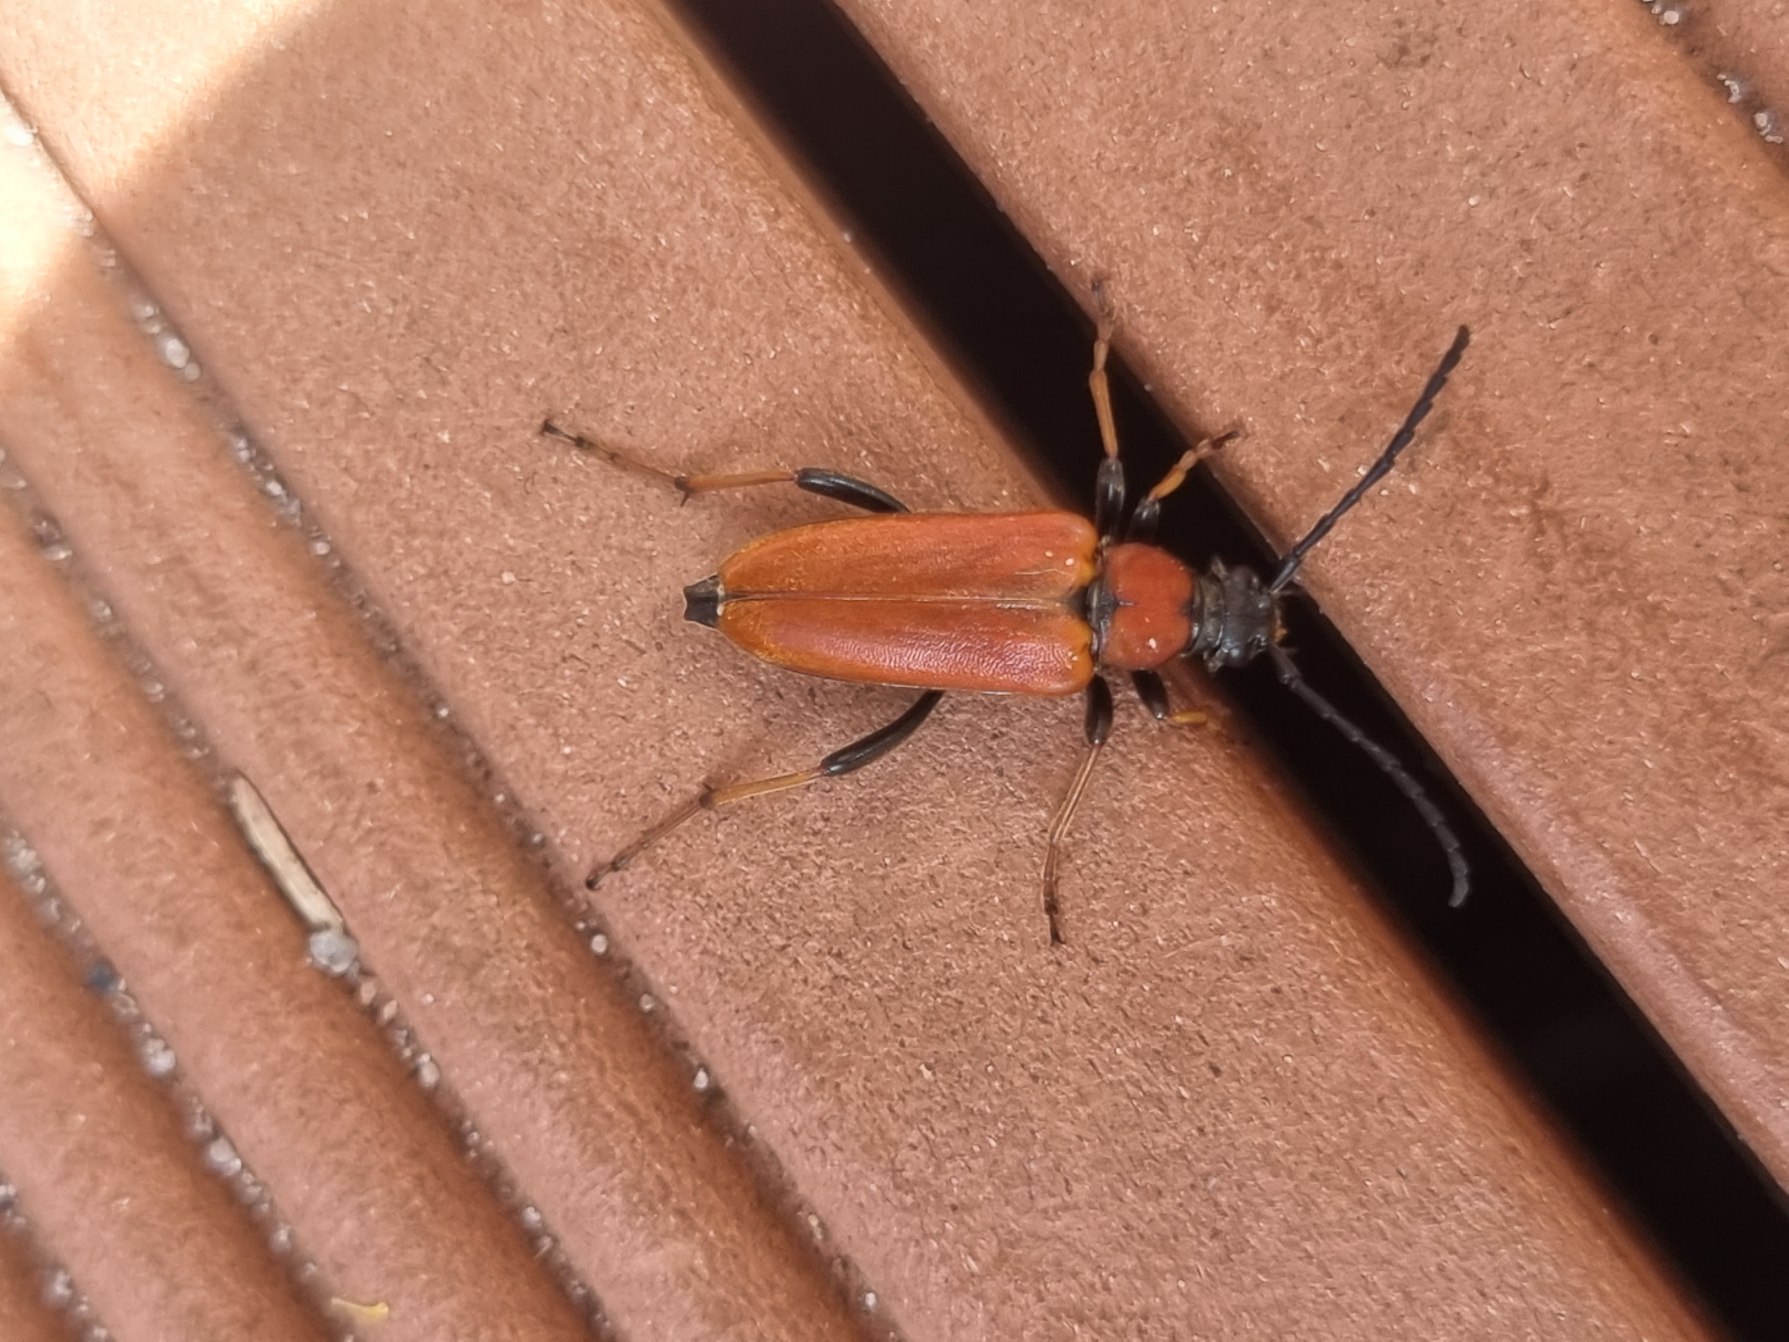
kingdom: Animalia
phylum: Arthropoda
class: Insecta
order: Coleoptera
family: Cerambycidae
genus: Stictoleptura
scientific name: Stictoleptura rubra
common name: Rød blomsterbuk
